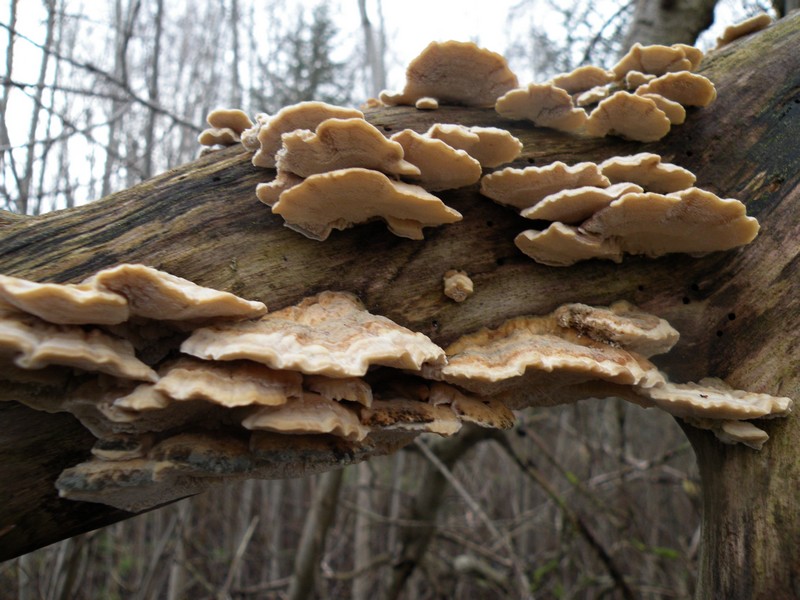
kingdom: Fungi
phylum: Basidiomycota
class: Agaricomycetes
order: Polyporales
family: Polyporaceae
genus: Trametes
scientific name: Trametes ochracea
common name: bæltet læderporesvamp
